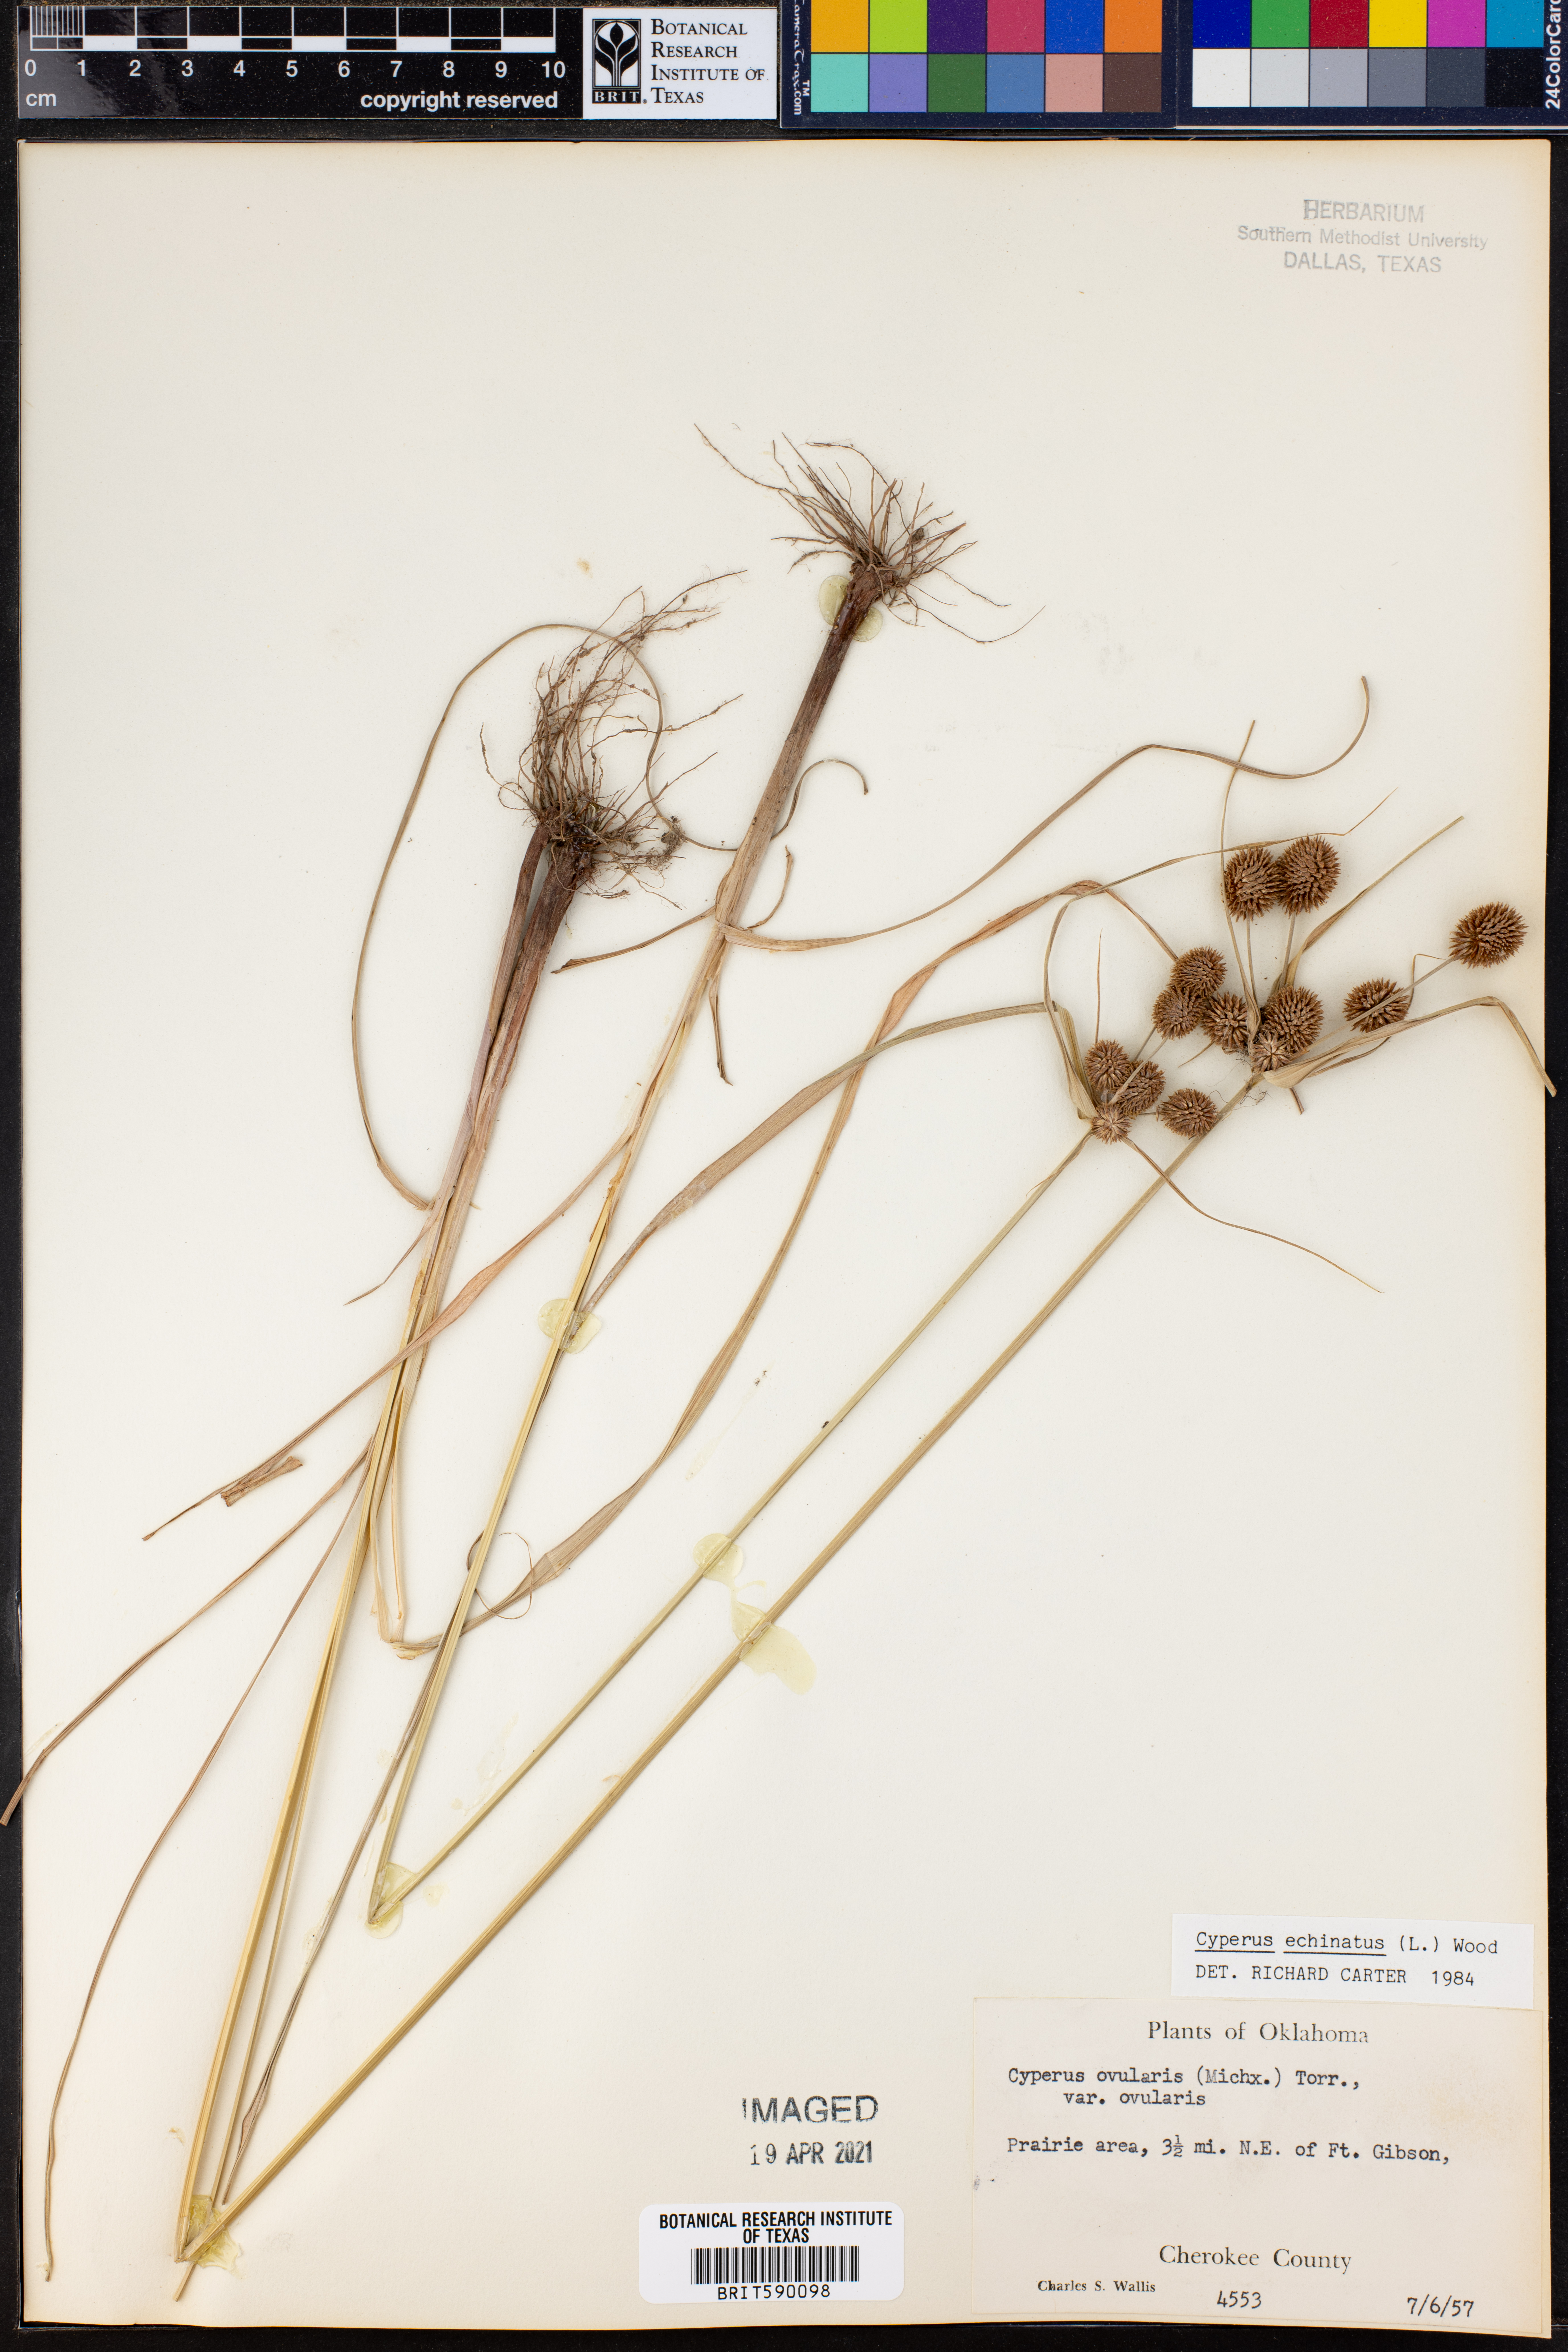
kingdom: Plantae
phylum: Tracheophyta
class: Liliopsida
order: Poales
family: Cyperaceae
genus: Cyperus
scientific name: Cyperus echinatus
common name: Teasel sedge
